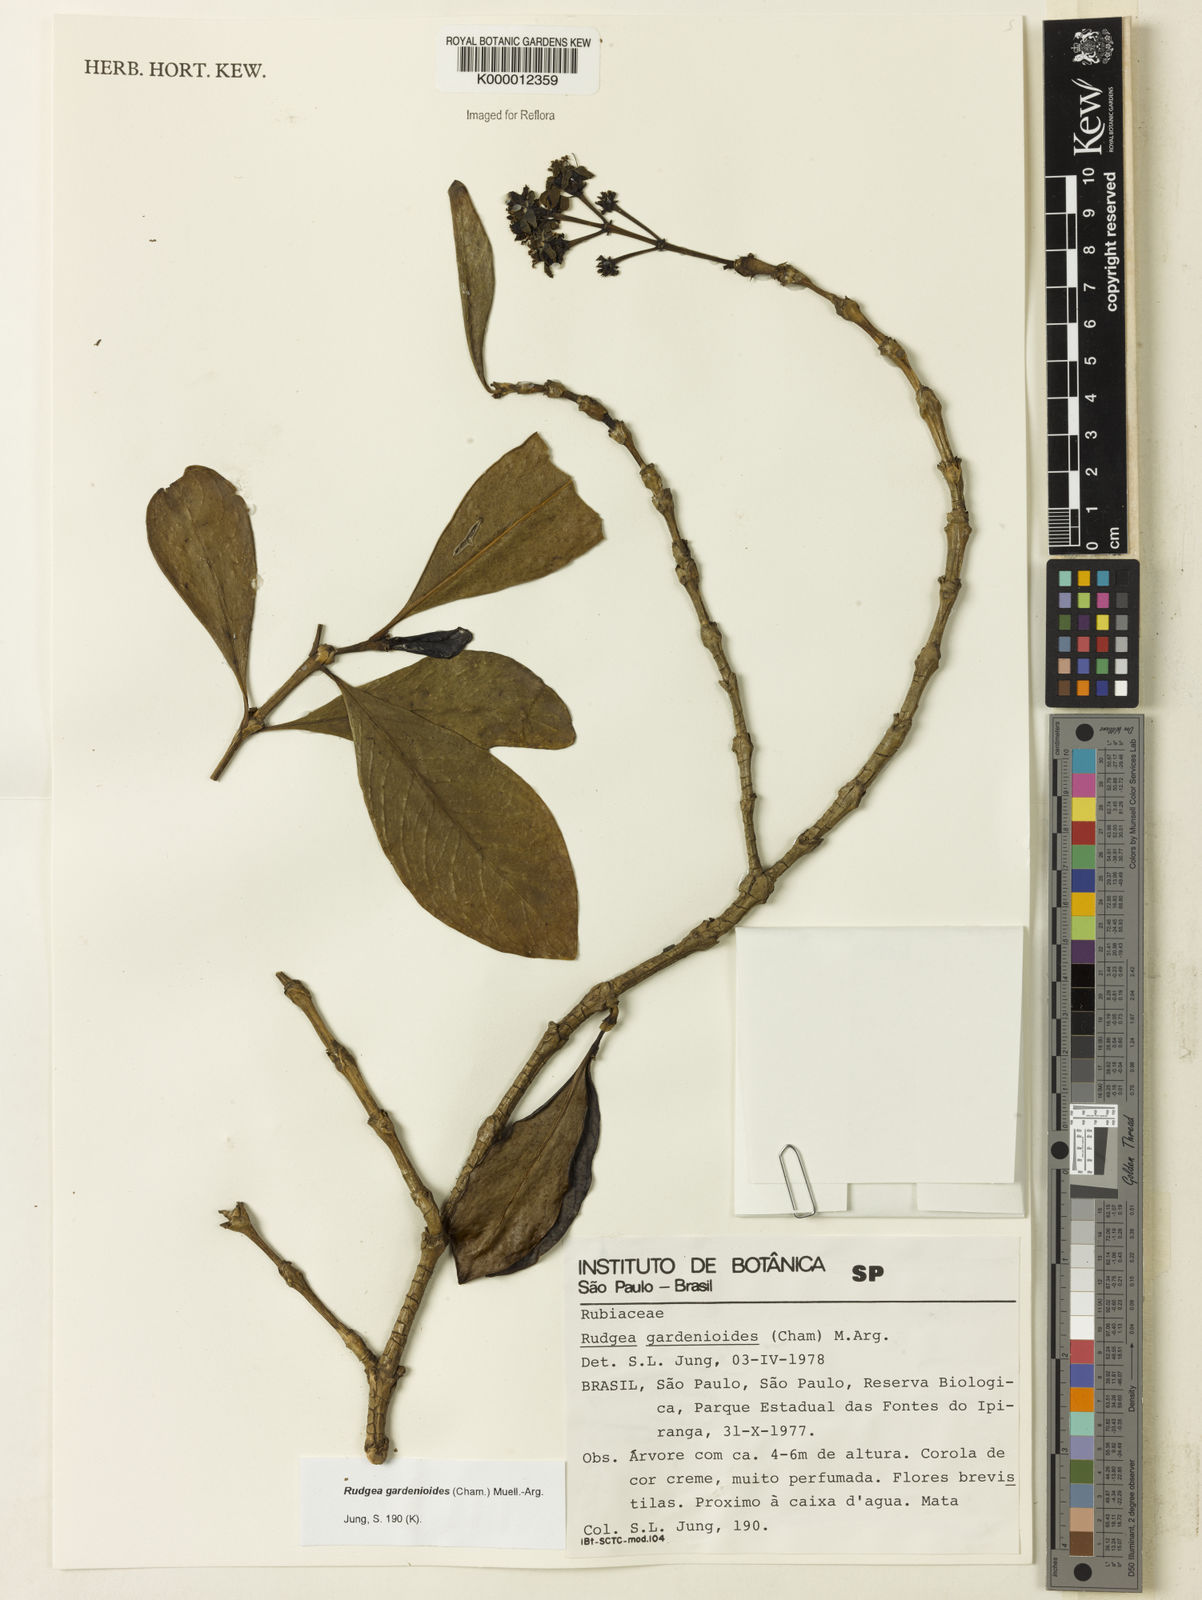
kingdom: Plantae
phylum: Tracheophyta
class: Magnoliopsida
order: Gentianales
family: Rubiaceae
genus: Rudgea
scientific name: Rudgea gardenioides
